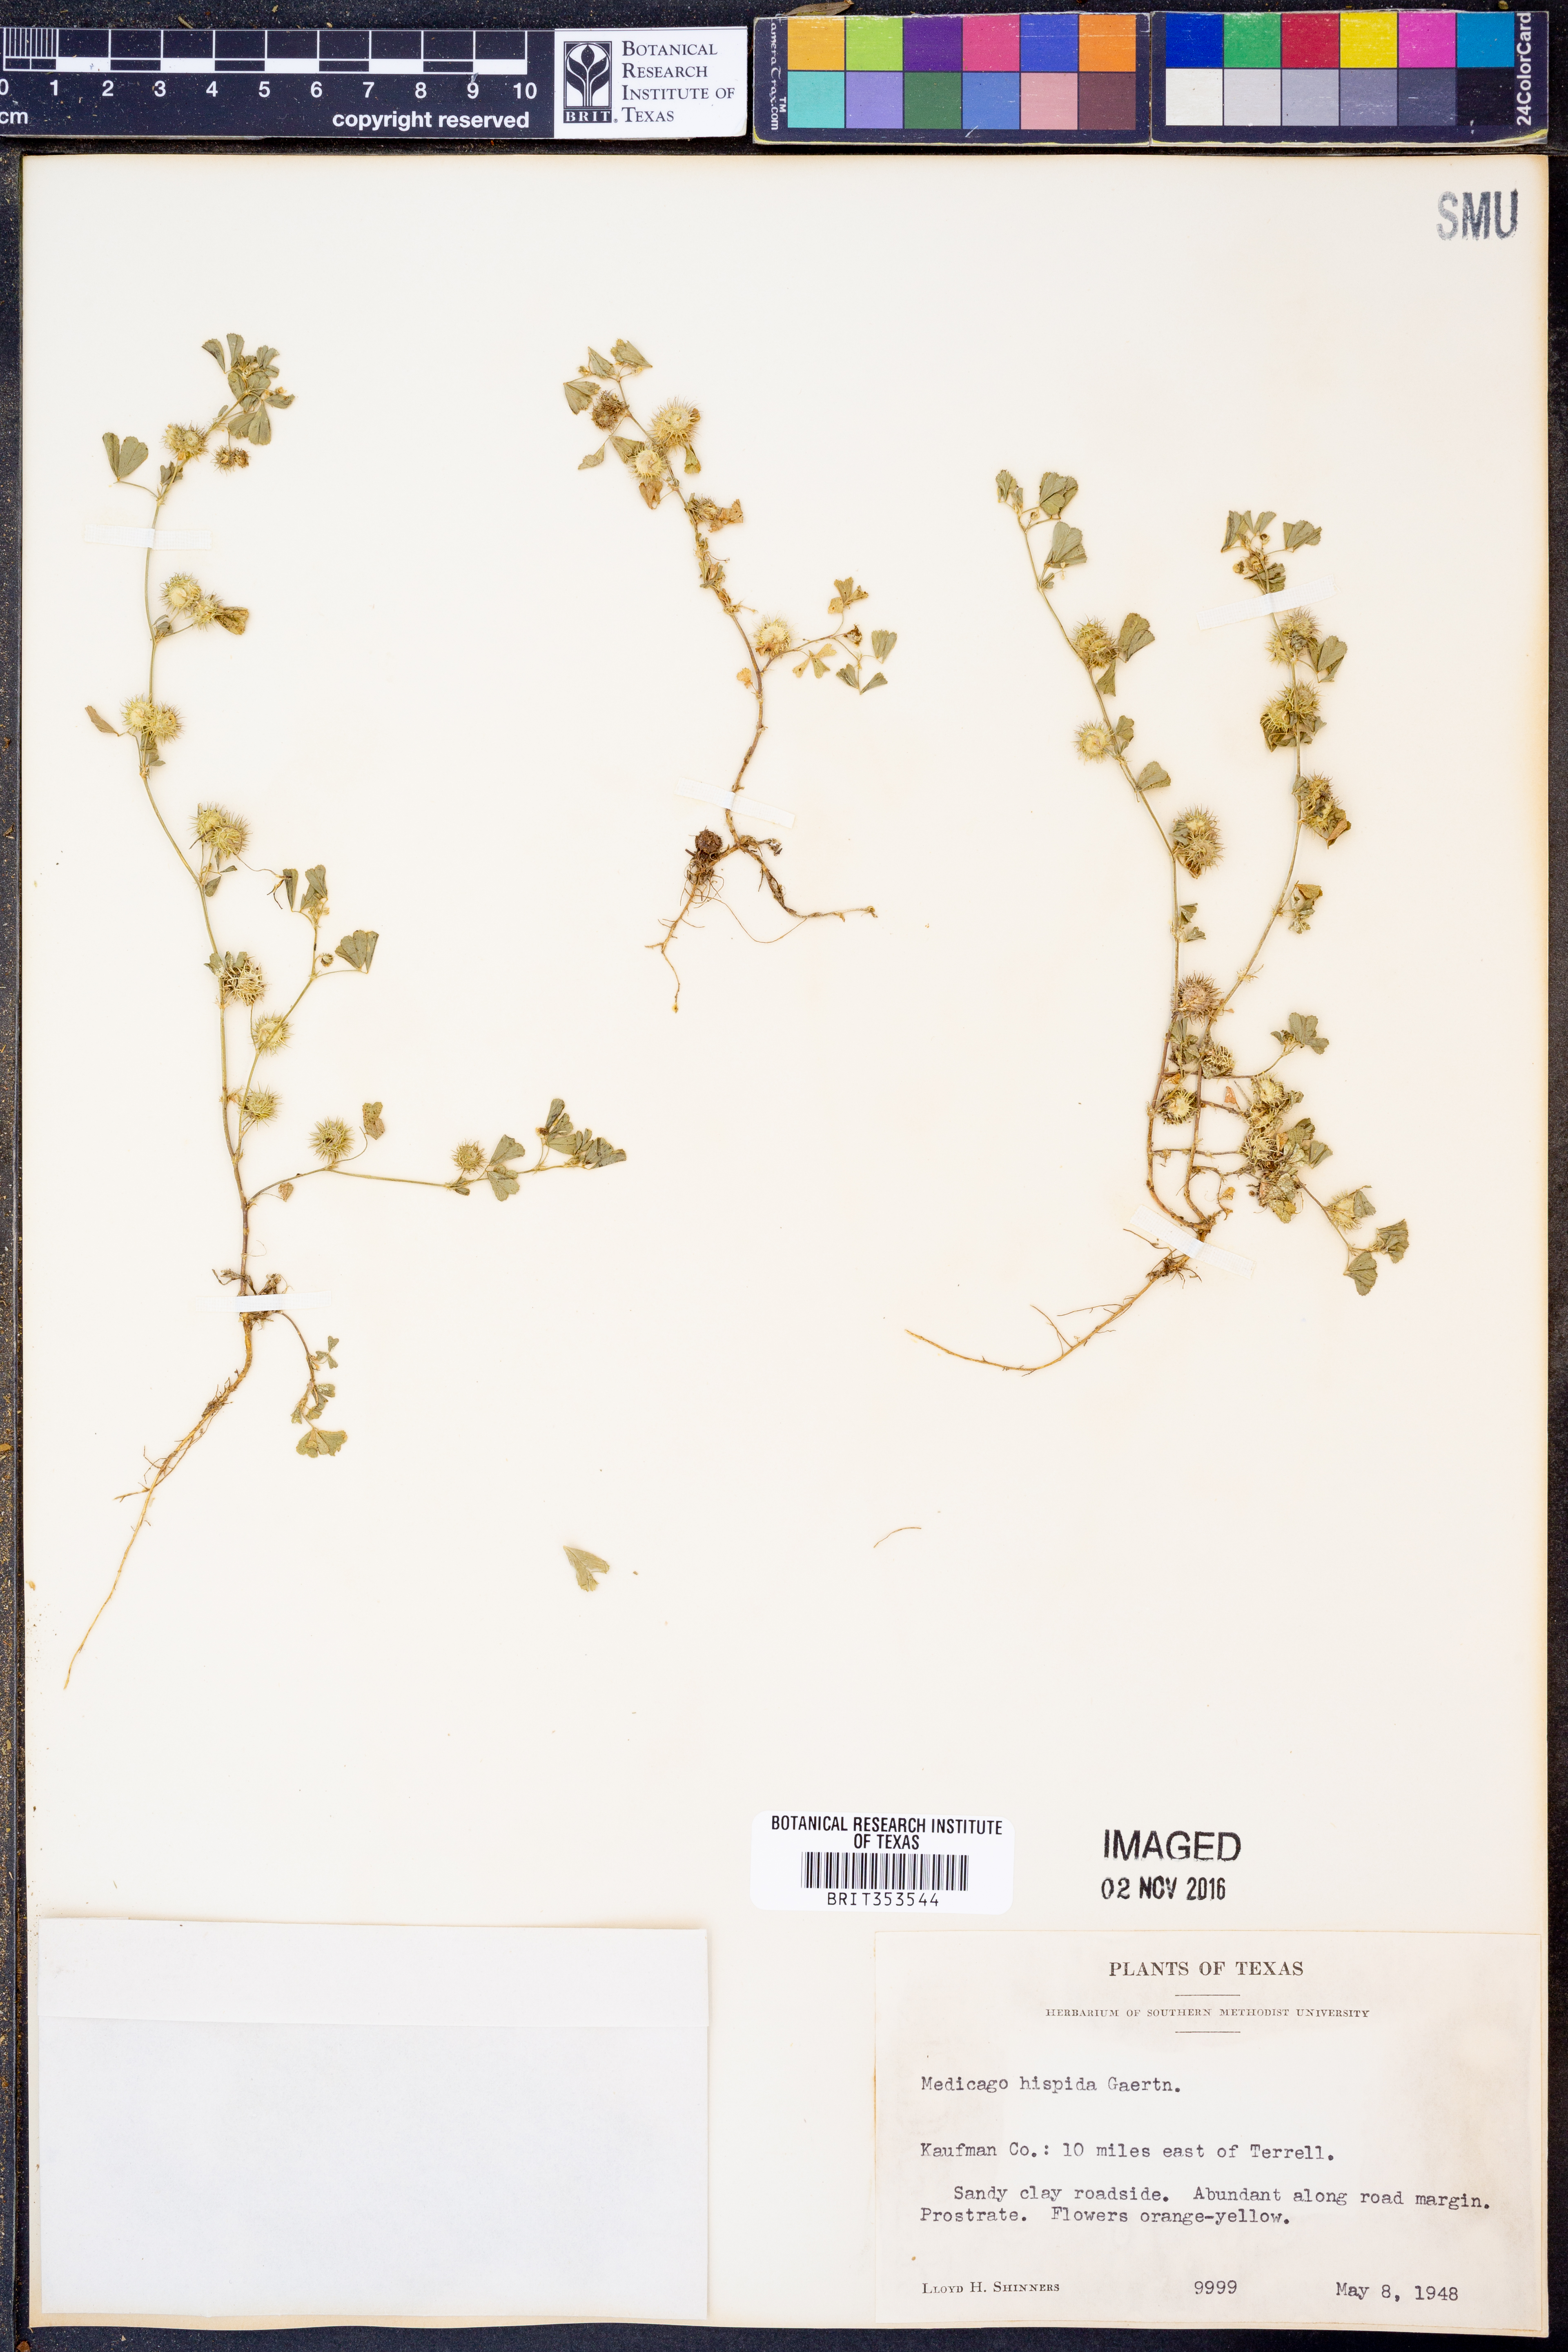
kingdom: Plantae
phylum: Tracheophyta
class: Magnoliopsida
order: Fabales
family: Fabaceae
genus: Medicago
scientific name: Medicago polymorpha
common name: Burclover
